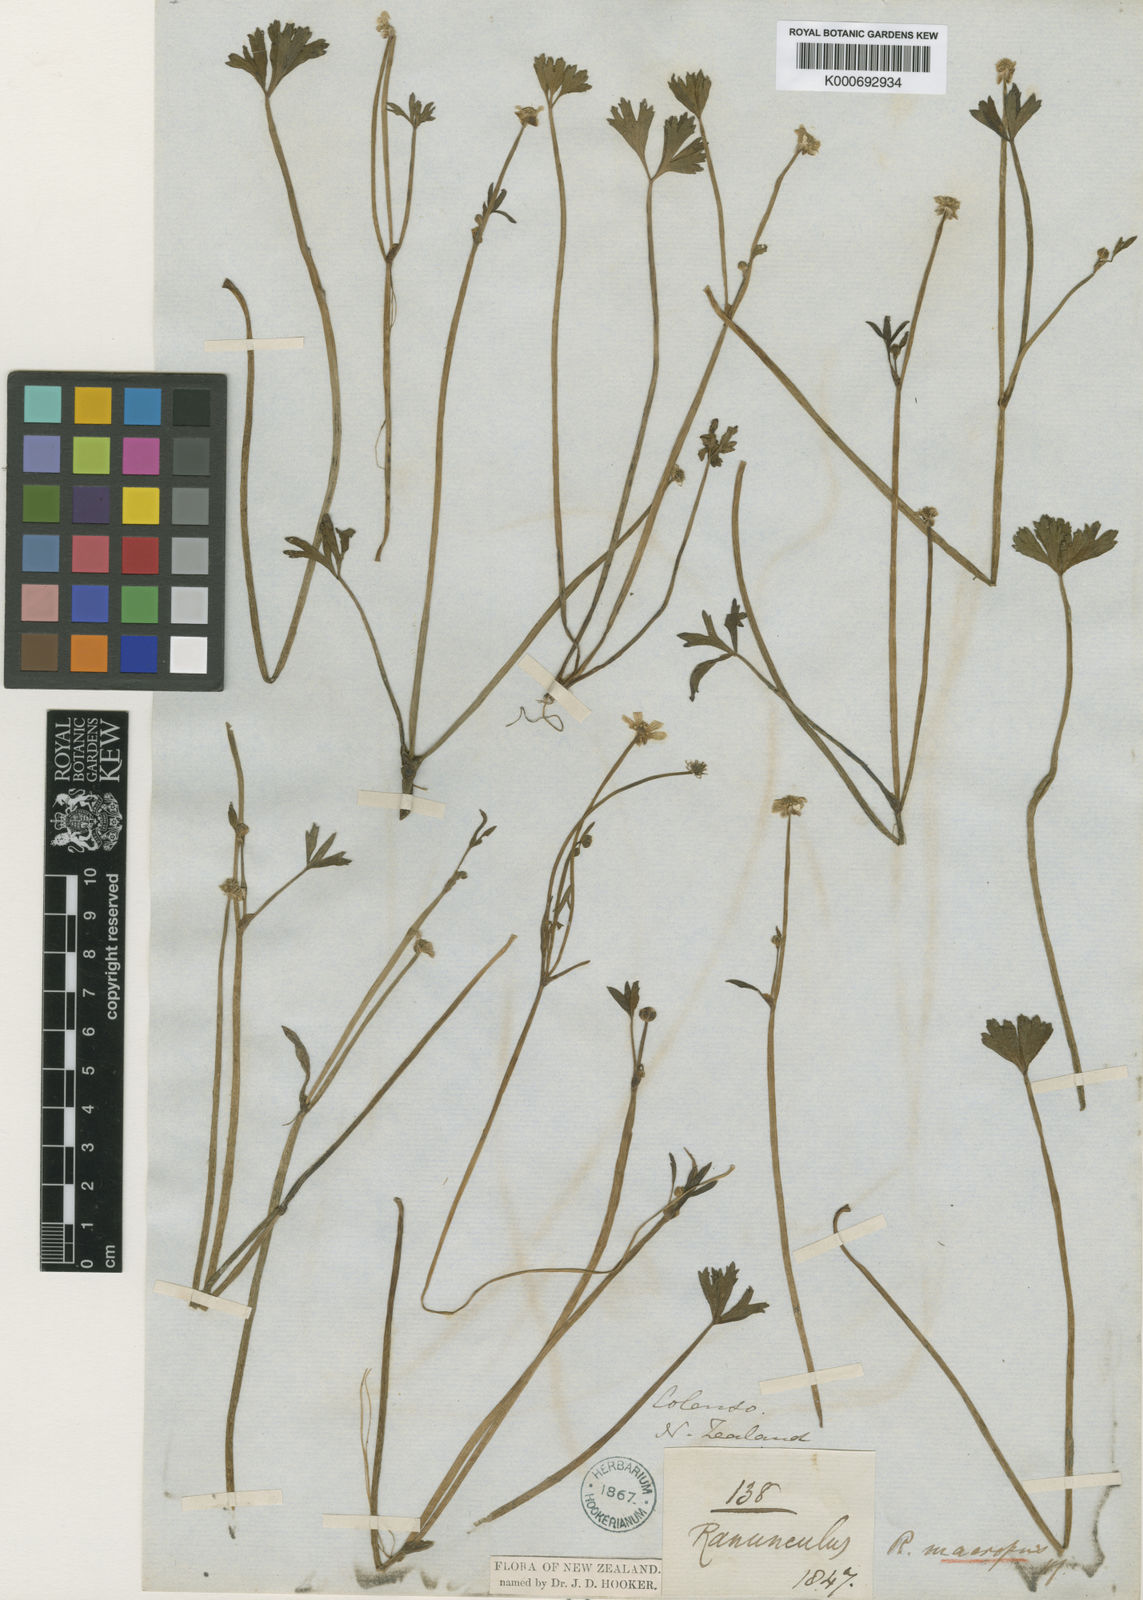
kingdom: Plantae
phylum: Tracheophyta
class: Magnoliopsida
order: Ranunculales
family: Ranunculaceae
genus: Ranunculus
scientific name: Ranunculus macropus
